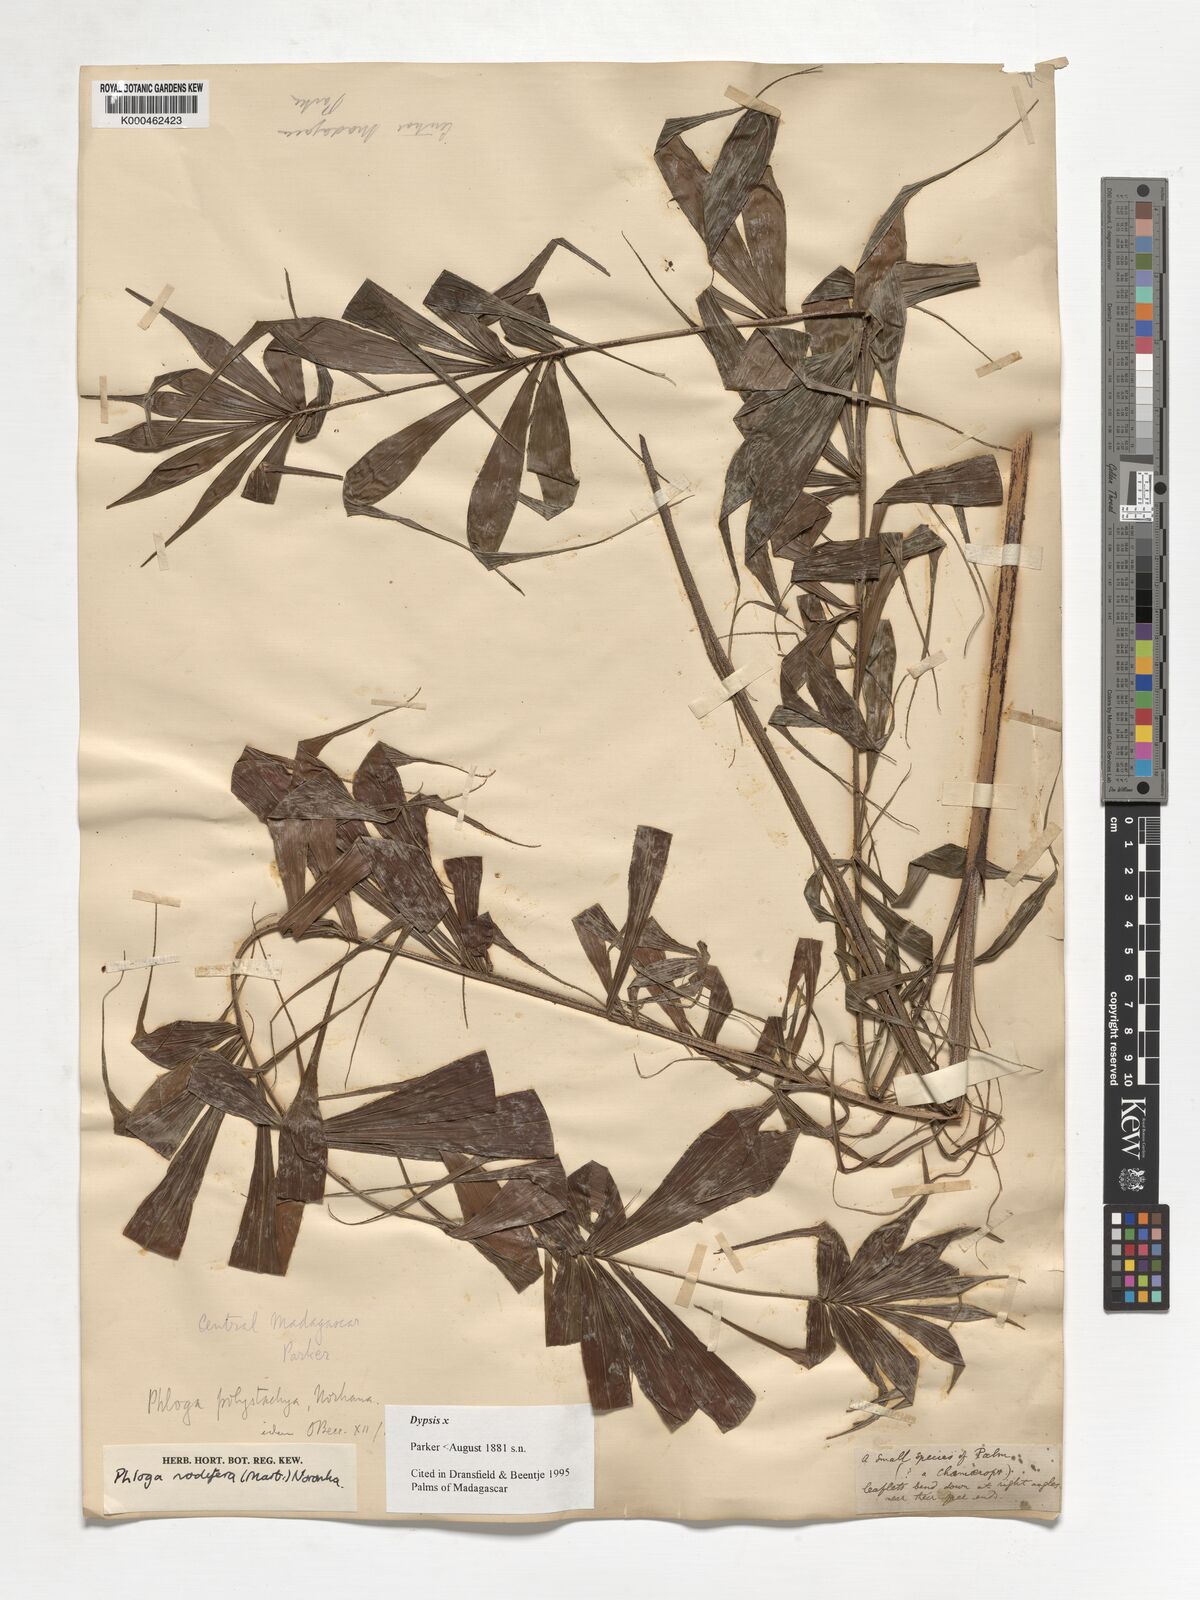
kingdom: Plantae
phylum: Tracheophyta
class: Liliopsida
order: Arecales
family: Arecaceae
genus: Dypsis
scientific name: Dypsis
